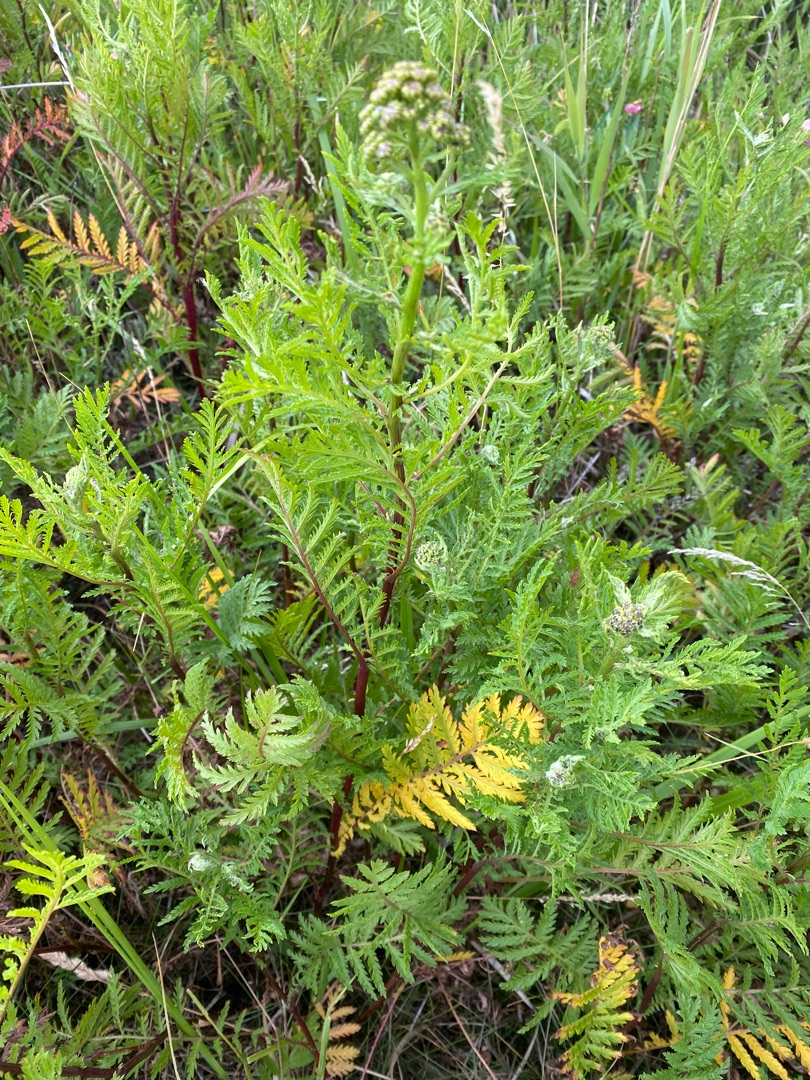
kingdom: Plantae
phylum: Tracheophyta
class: Magnoliopsida
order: Asterales
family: Asteraceae
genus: Tanacetum
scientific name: Tanacetum vulgare
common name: Rejnfan
